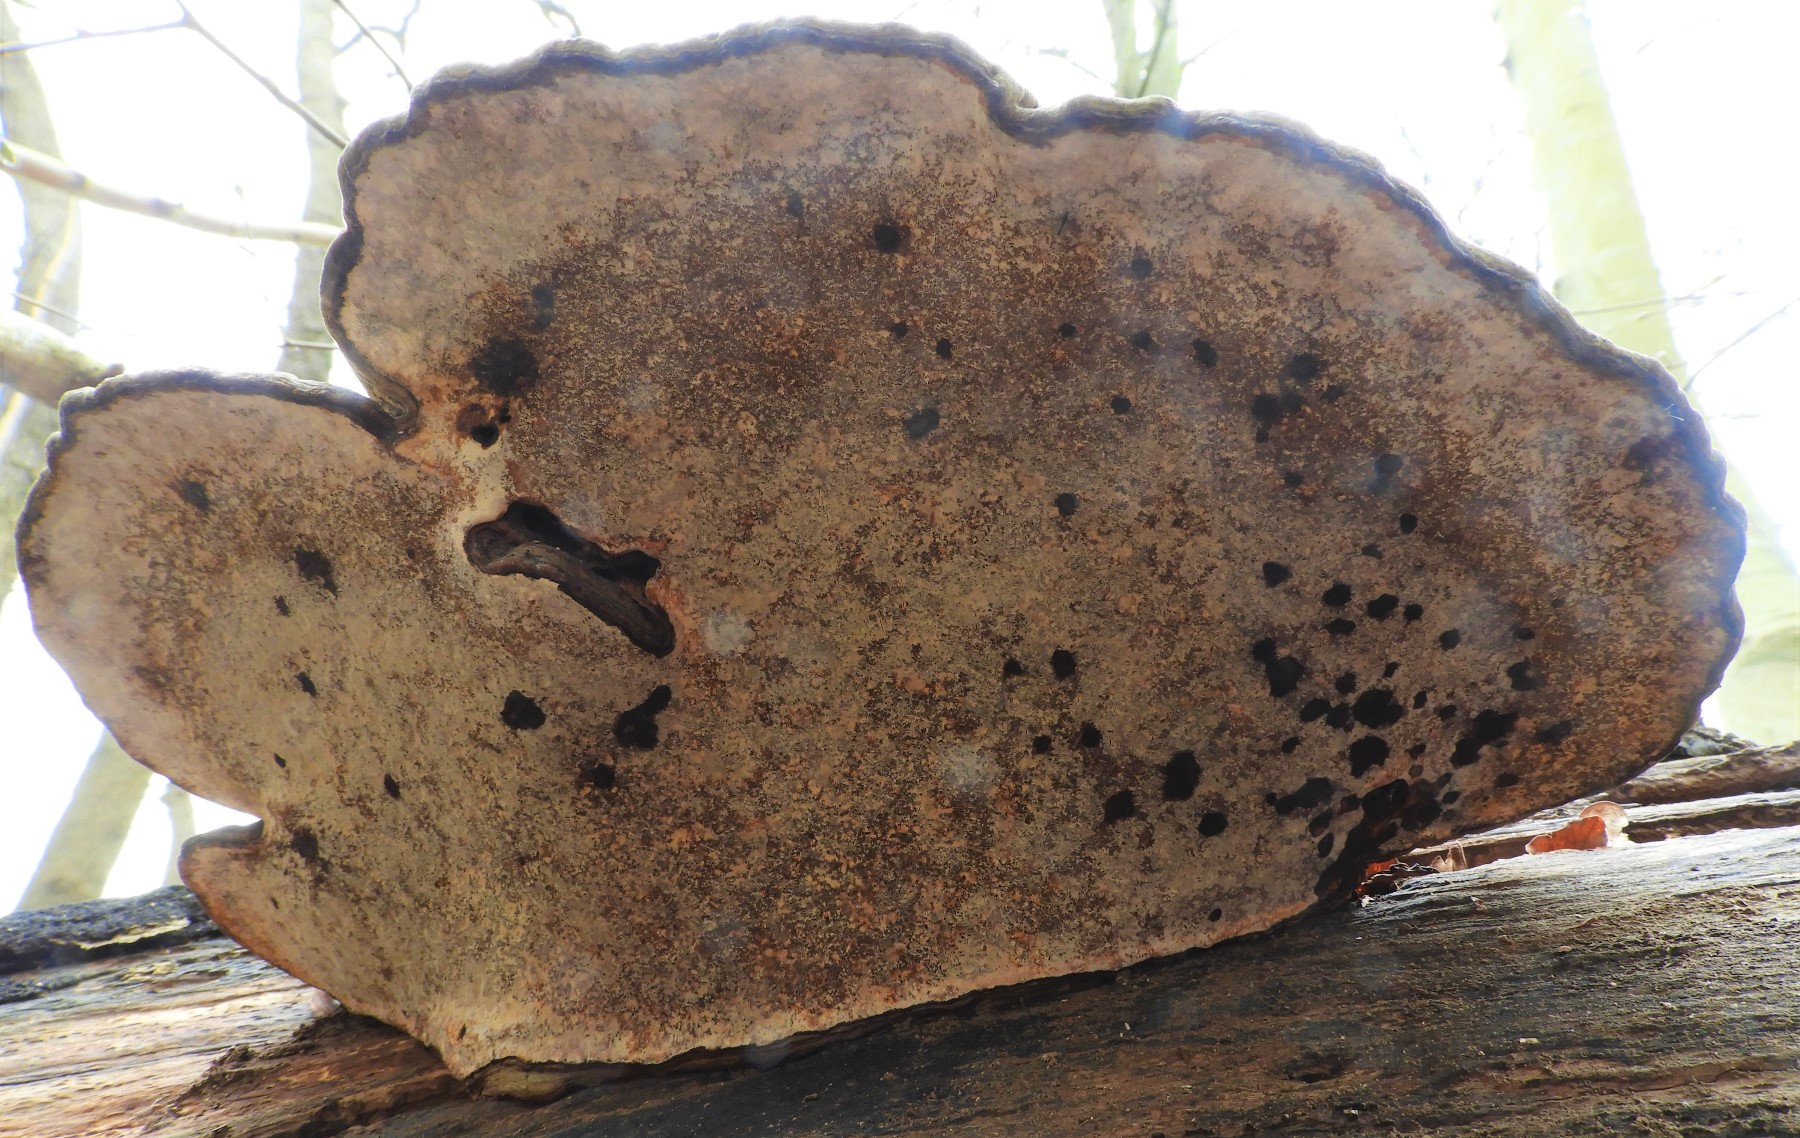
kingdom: Fungi
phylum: Basidiomycota
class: Agaricomycetes
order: Polyporales
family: Polyporaceae
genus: Ganoderma
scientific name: Ganoderma applanatum
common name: flad lakporesvamp
